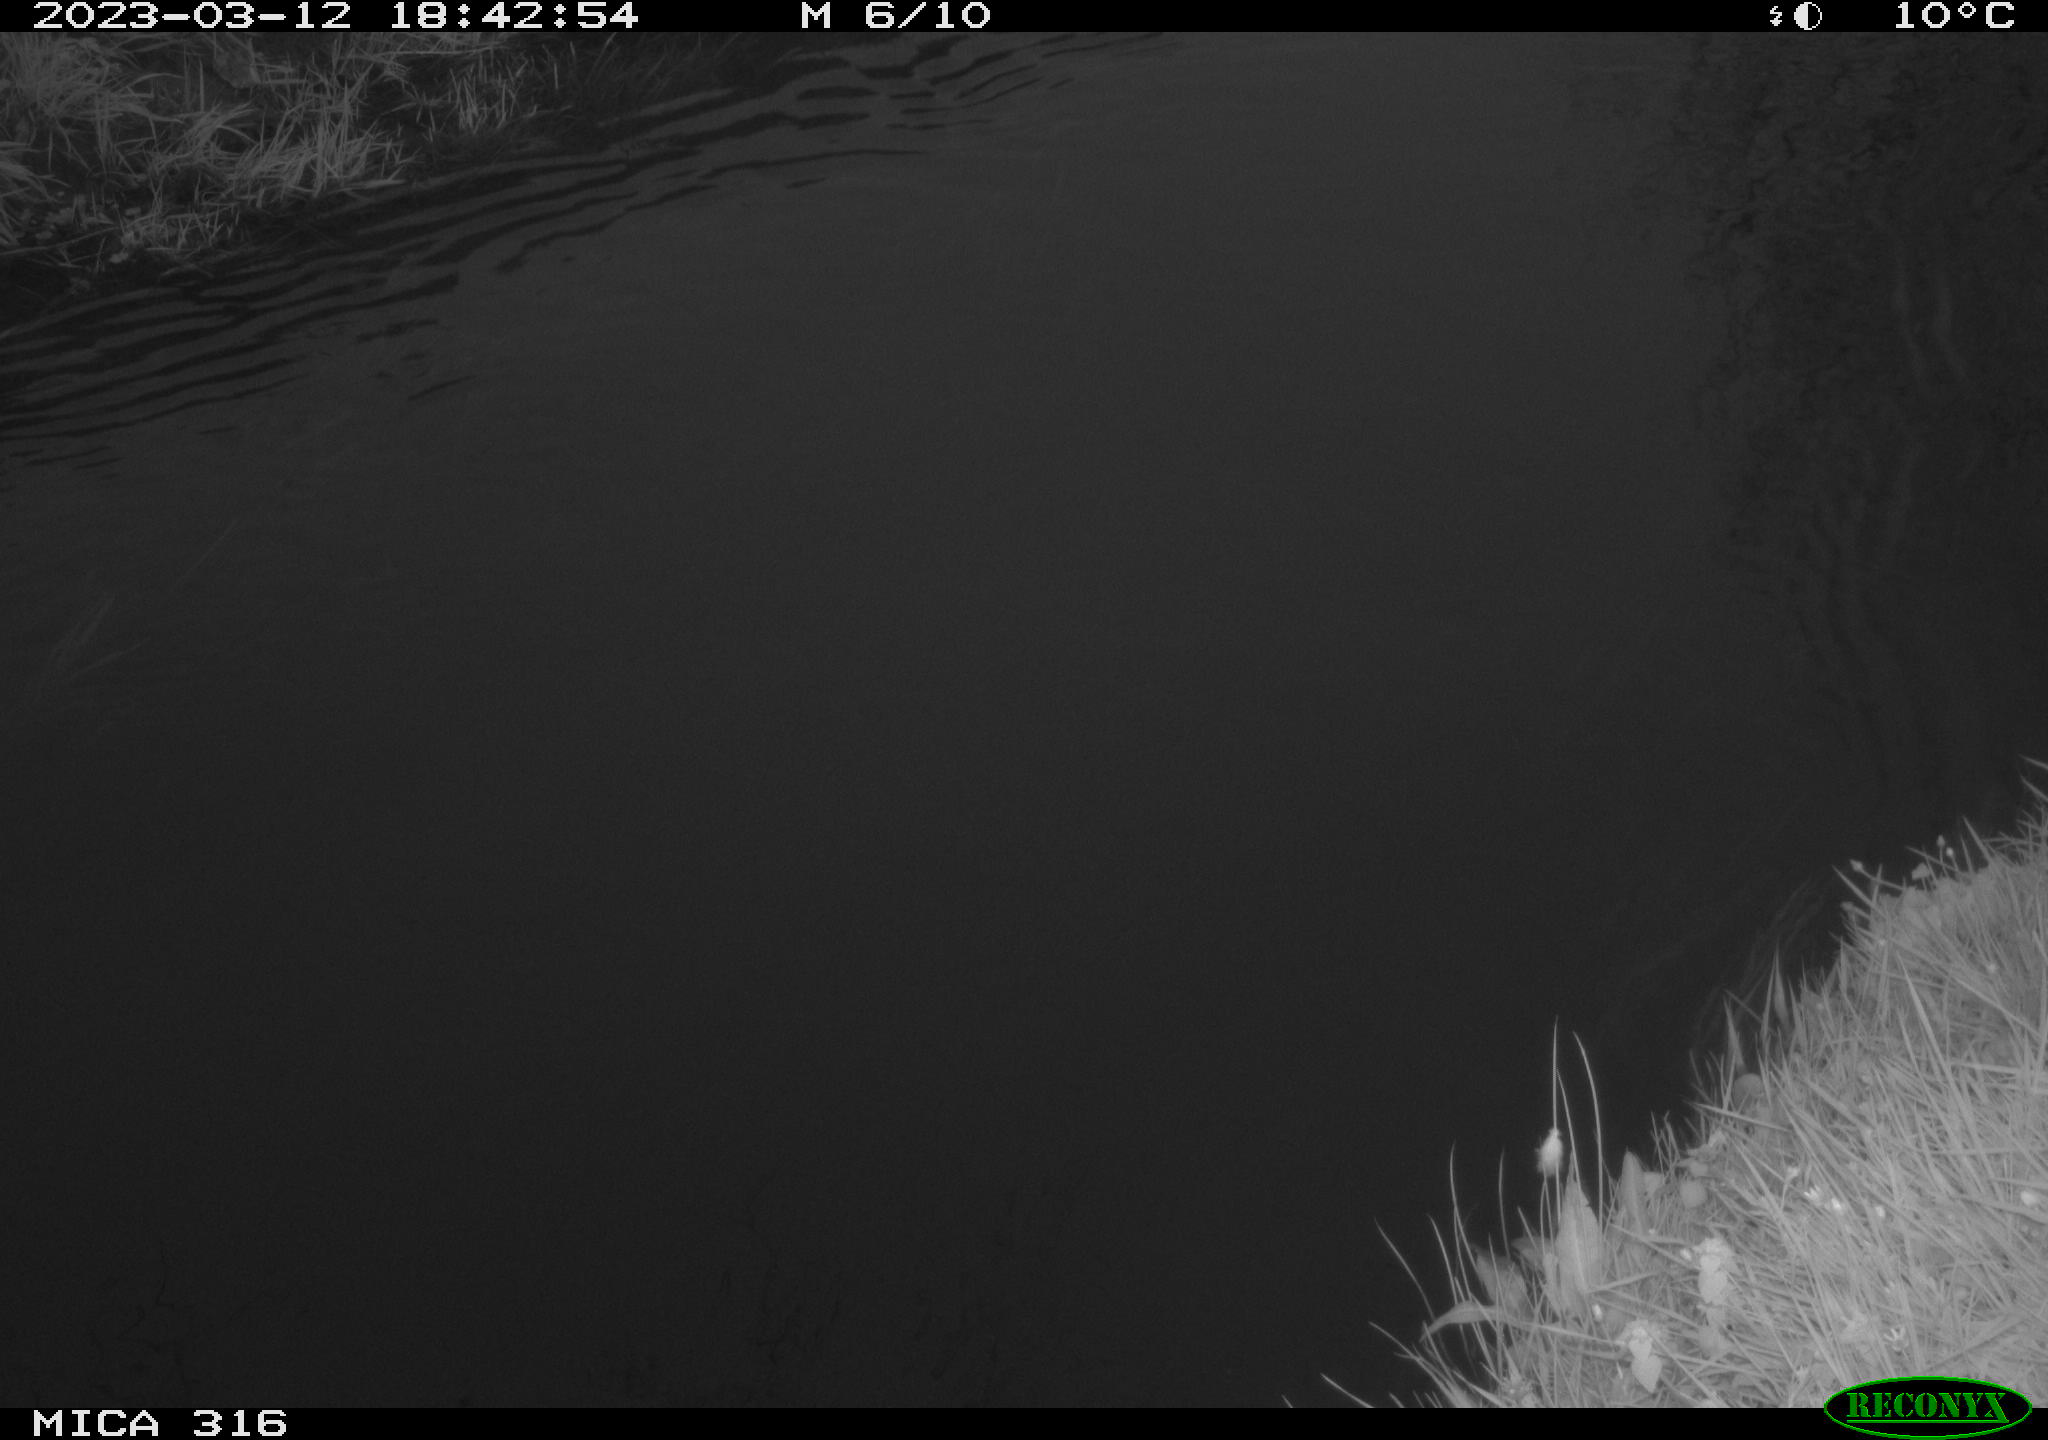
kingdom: Animalia
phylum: Chordata
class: Aves
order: Anseriformes
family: Anatidae
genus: Anas
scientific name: Anas
